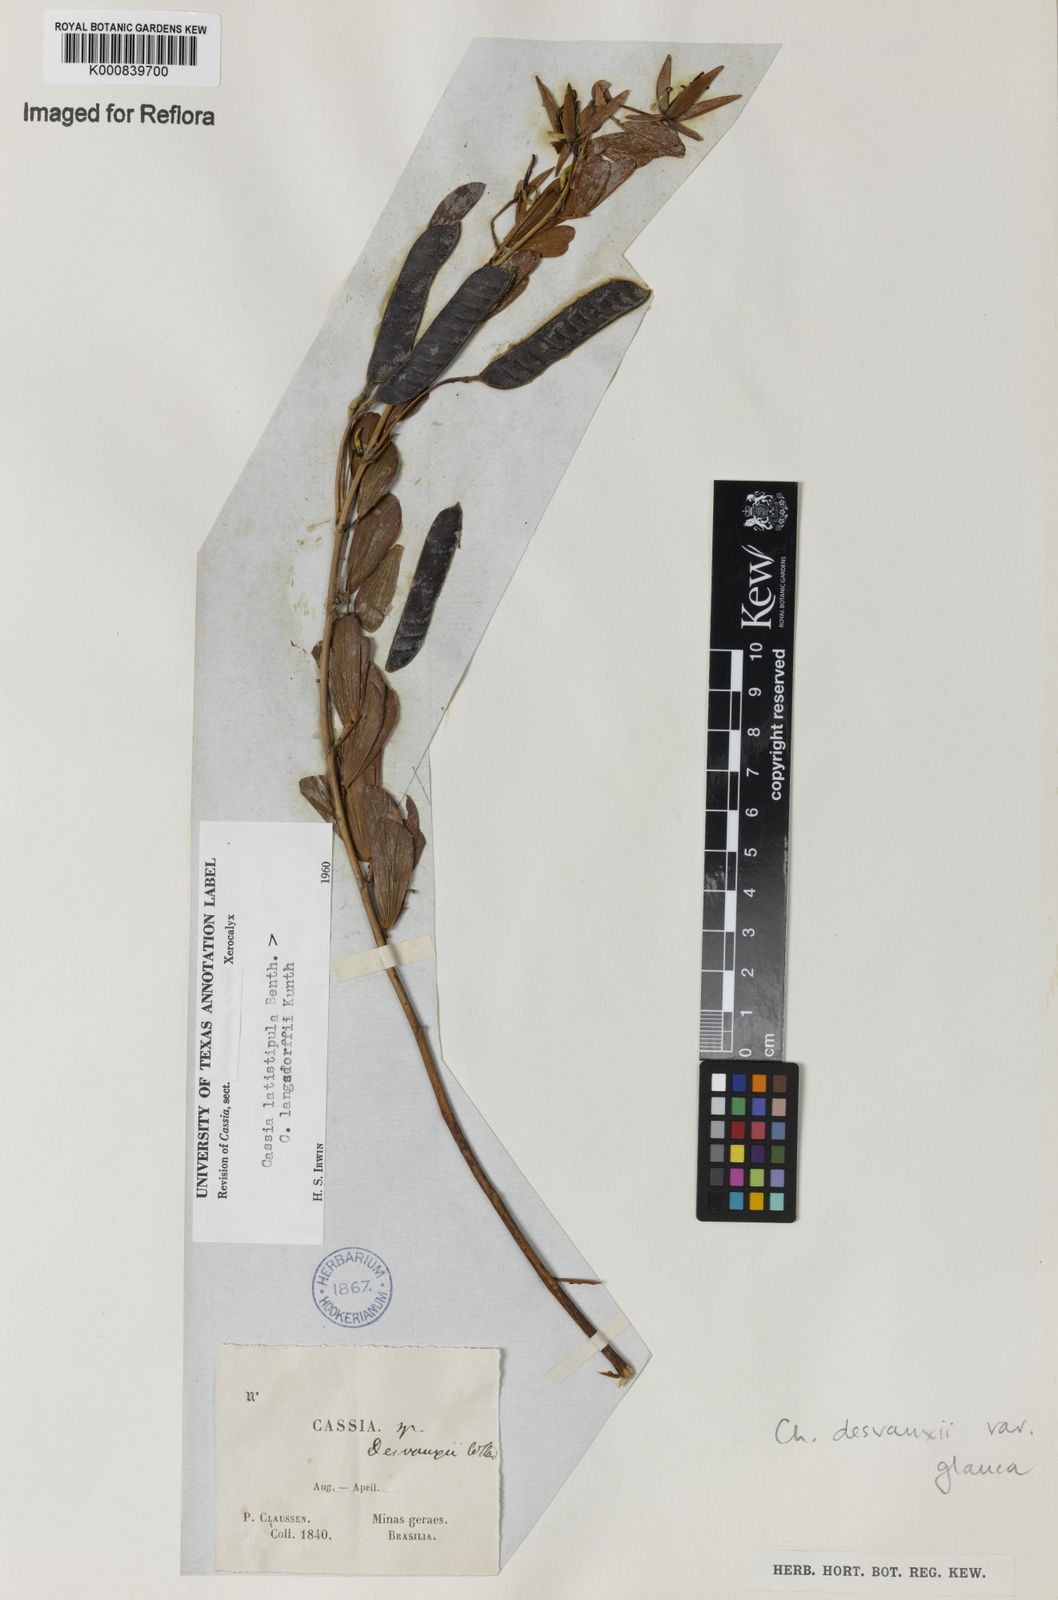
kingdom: Plantae
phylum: Tracheophyta
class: Magnoliopsida
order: Fabales
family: Fabaceae
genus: Chamaecrista
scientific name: Chamaecrista desvauxii
